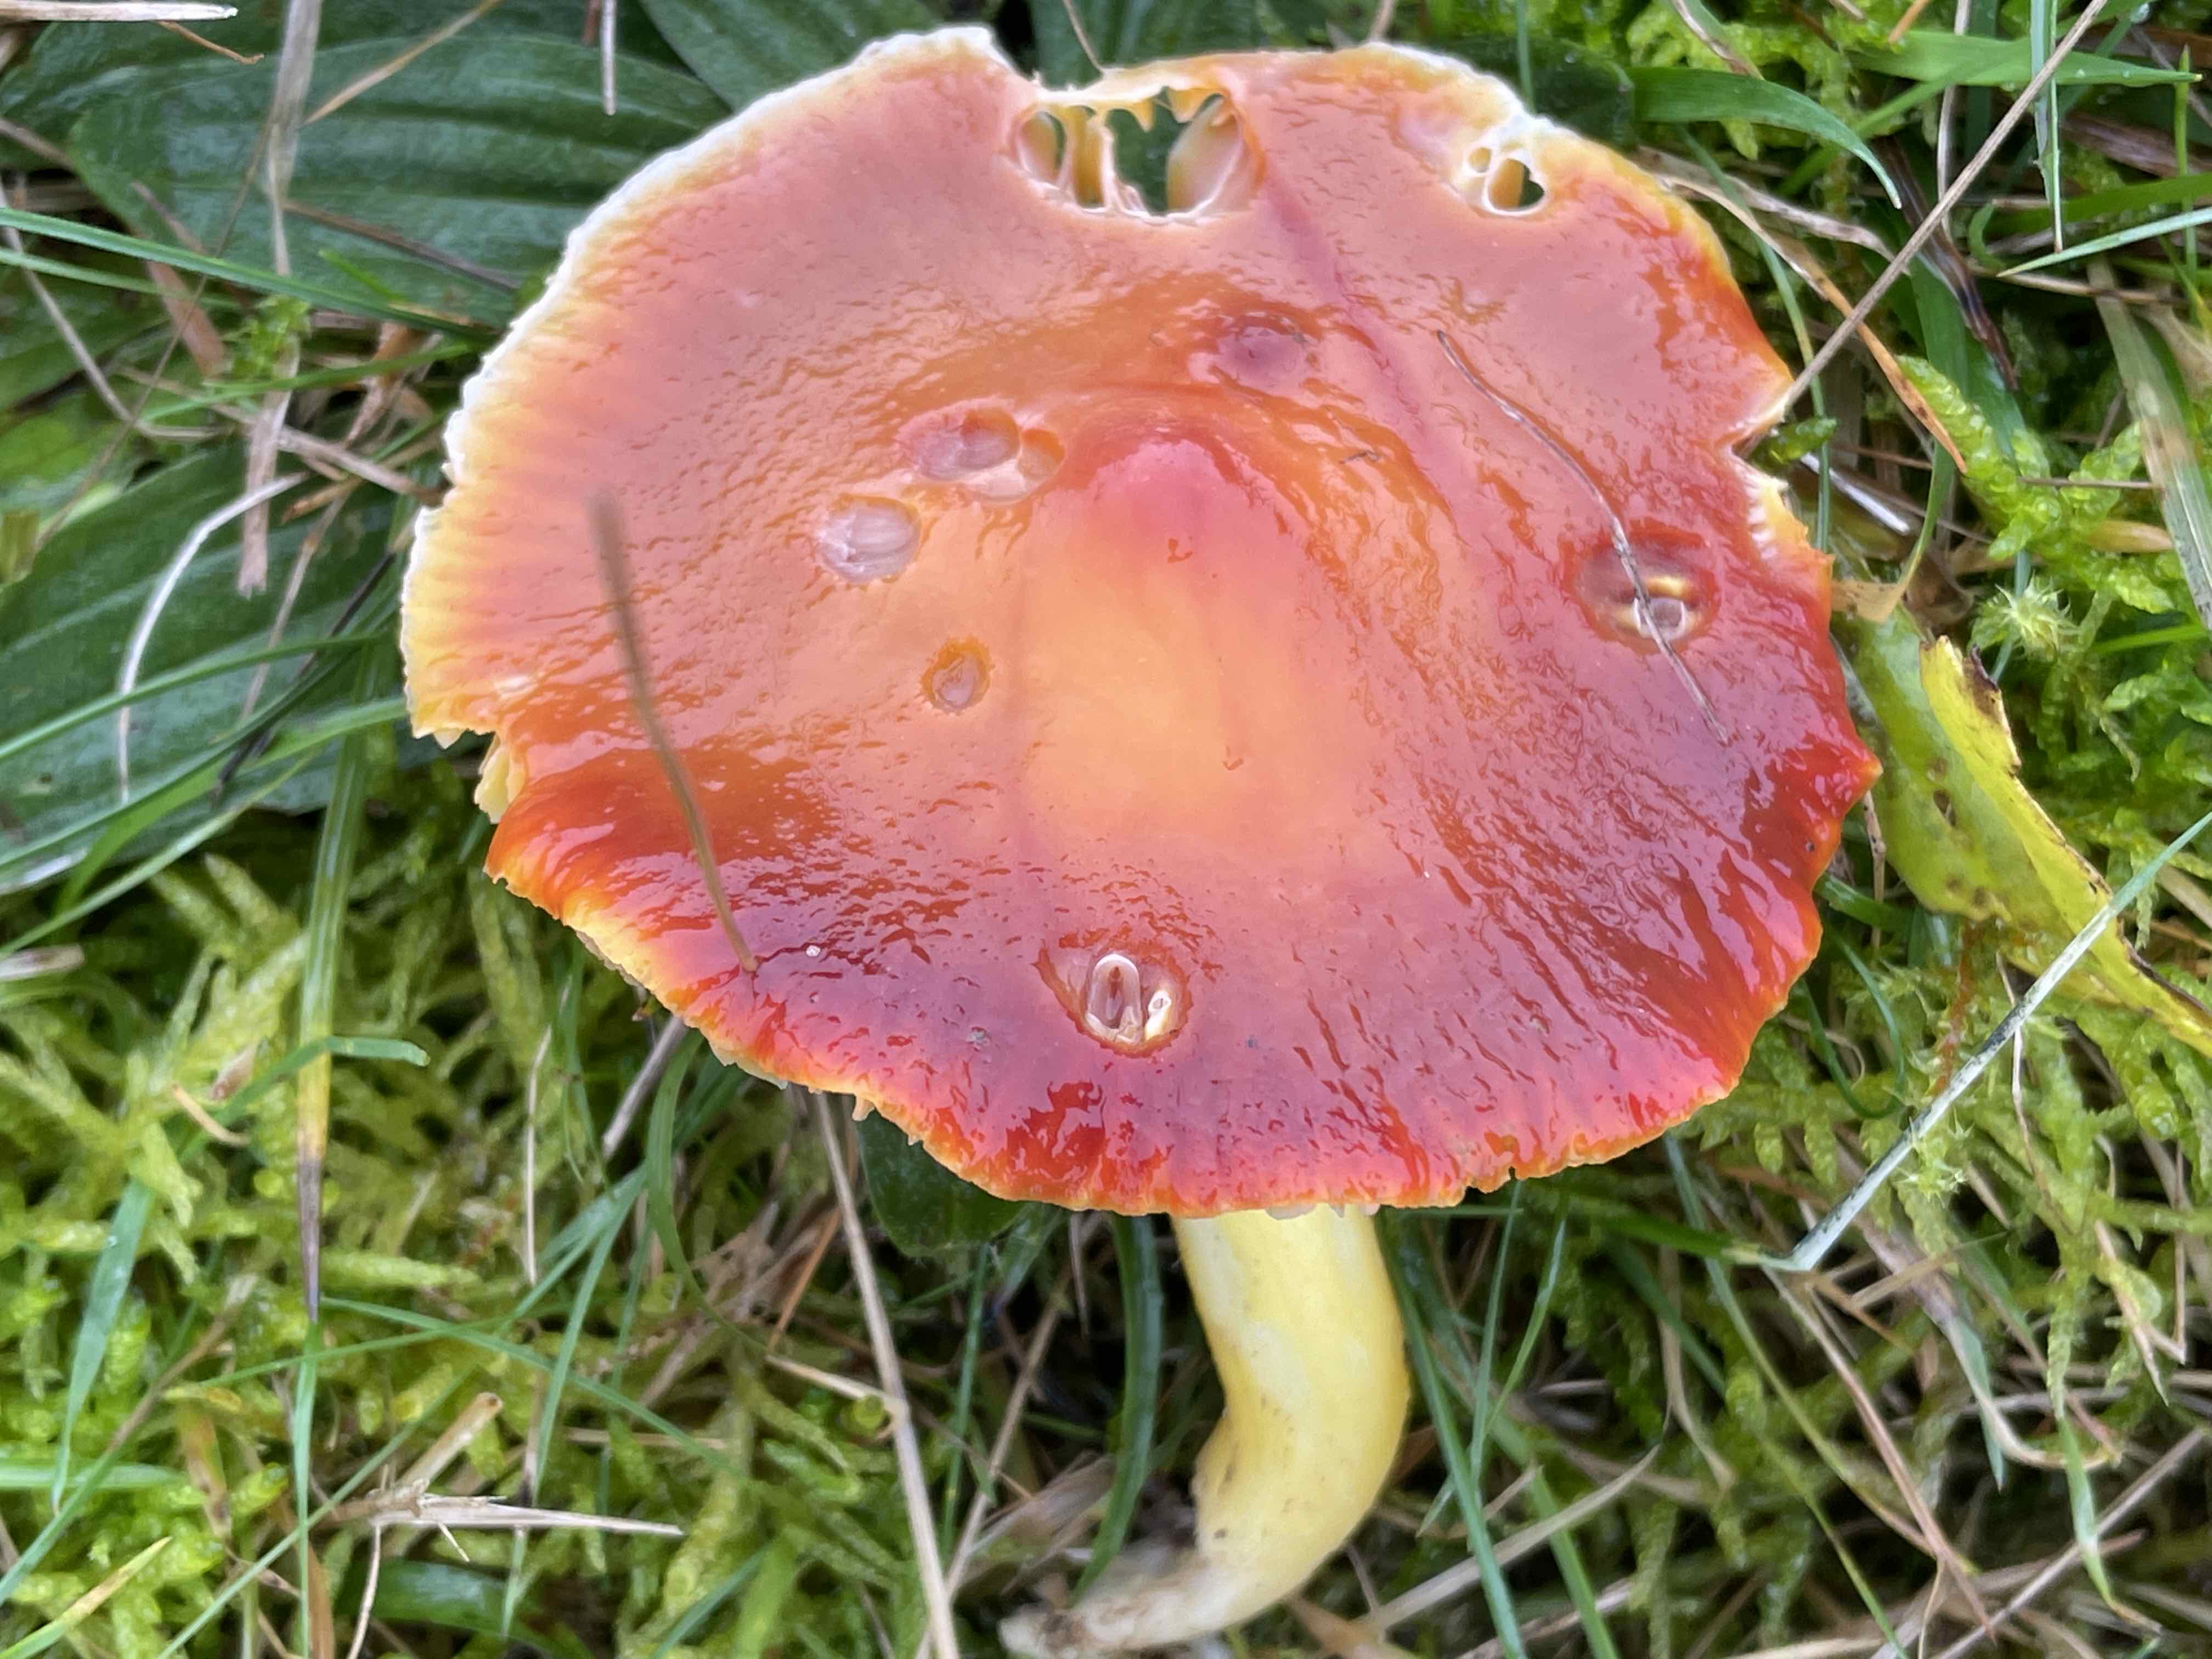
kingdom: Fungi
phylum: Basidiomycota
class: Agaricomycetes
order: Agaricales
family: Hygrophoraceae
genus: Hygrocybe
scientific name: Hygrocybe punicea
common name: skarlagen-vokshat
